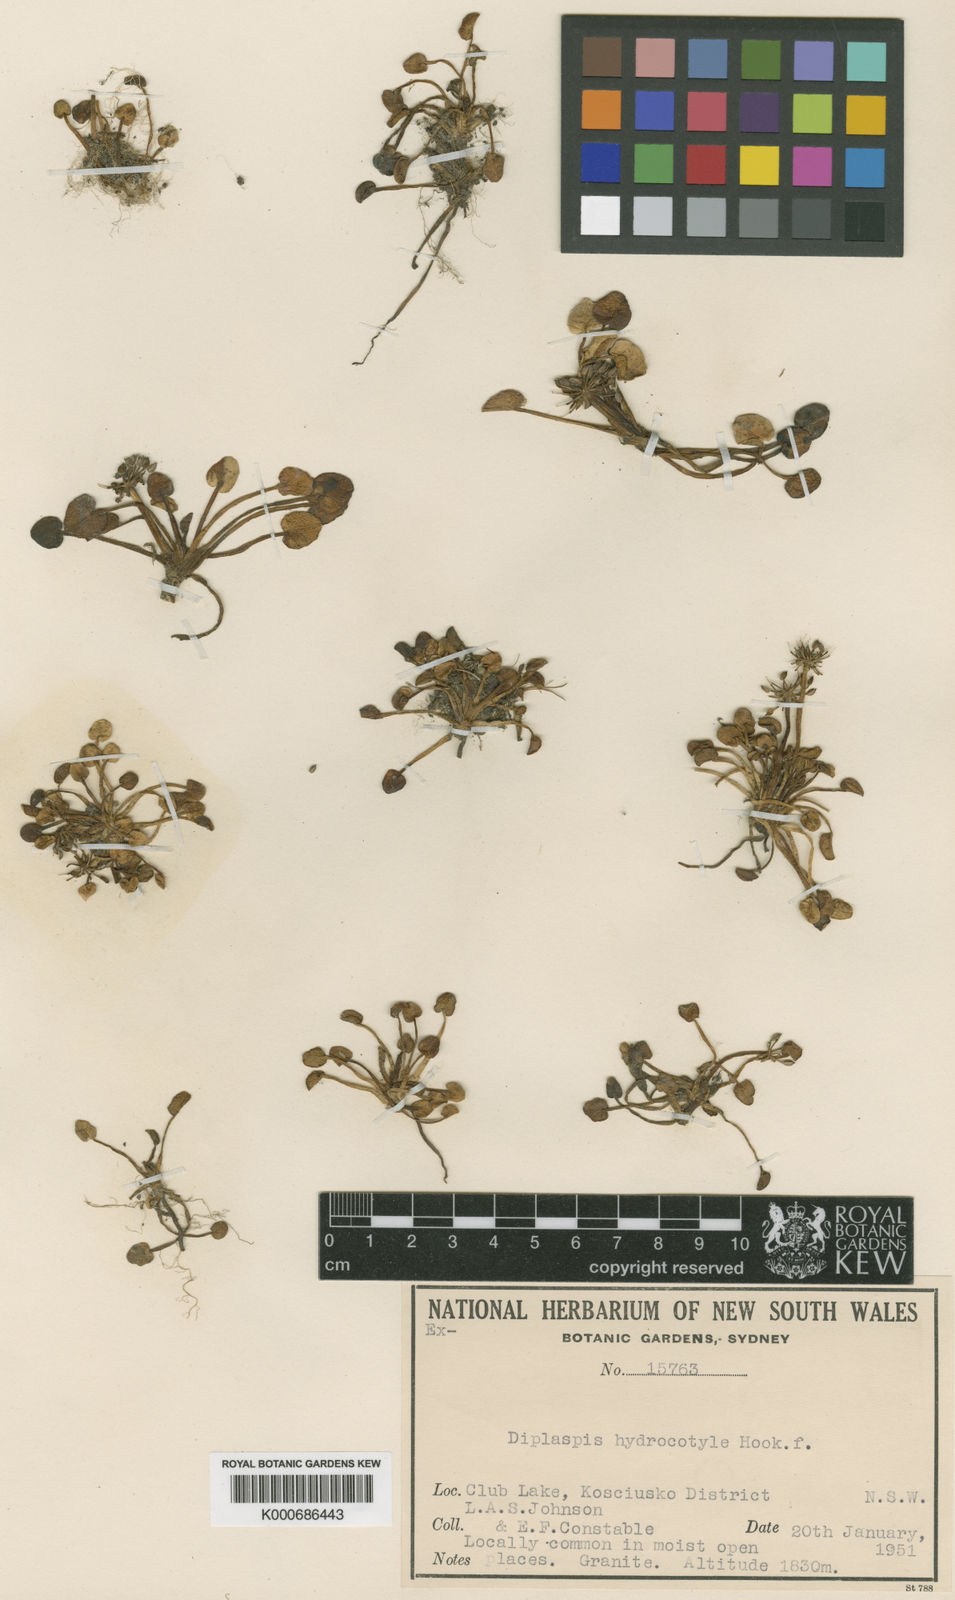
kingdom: Plantae
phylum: Tracheophyta
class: Magnoliopsida
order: Apiales
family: Apiaceae
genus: Diplaspis
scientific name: Diplaspis
